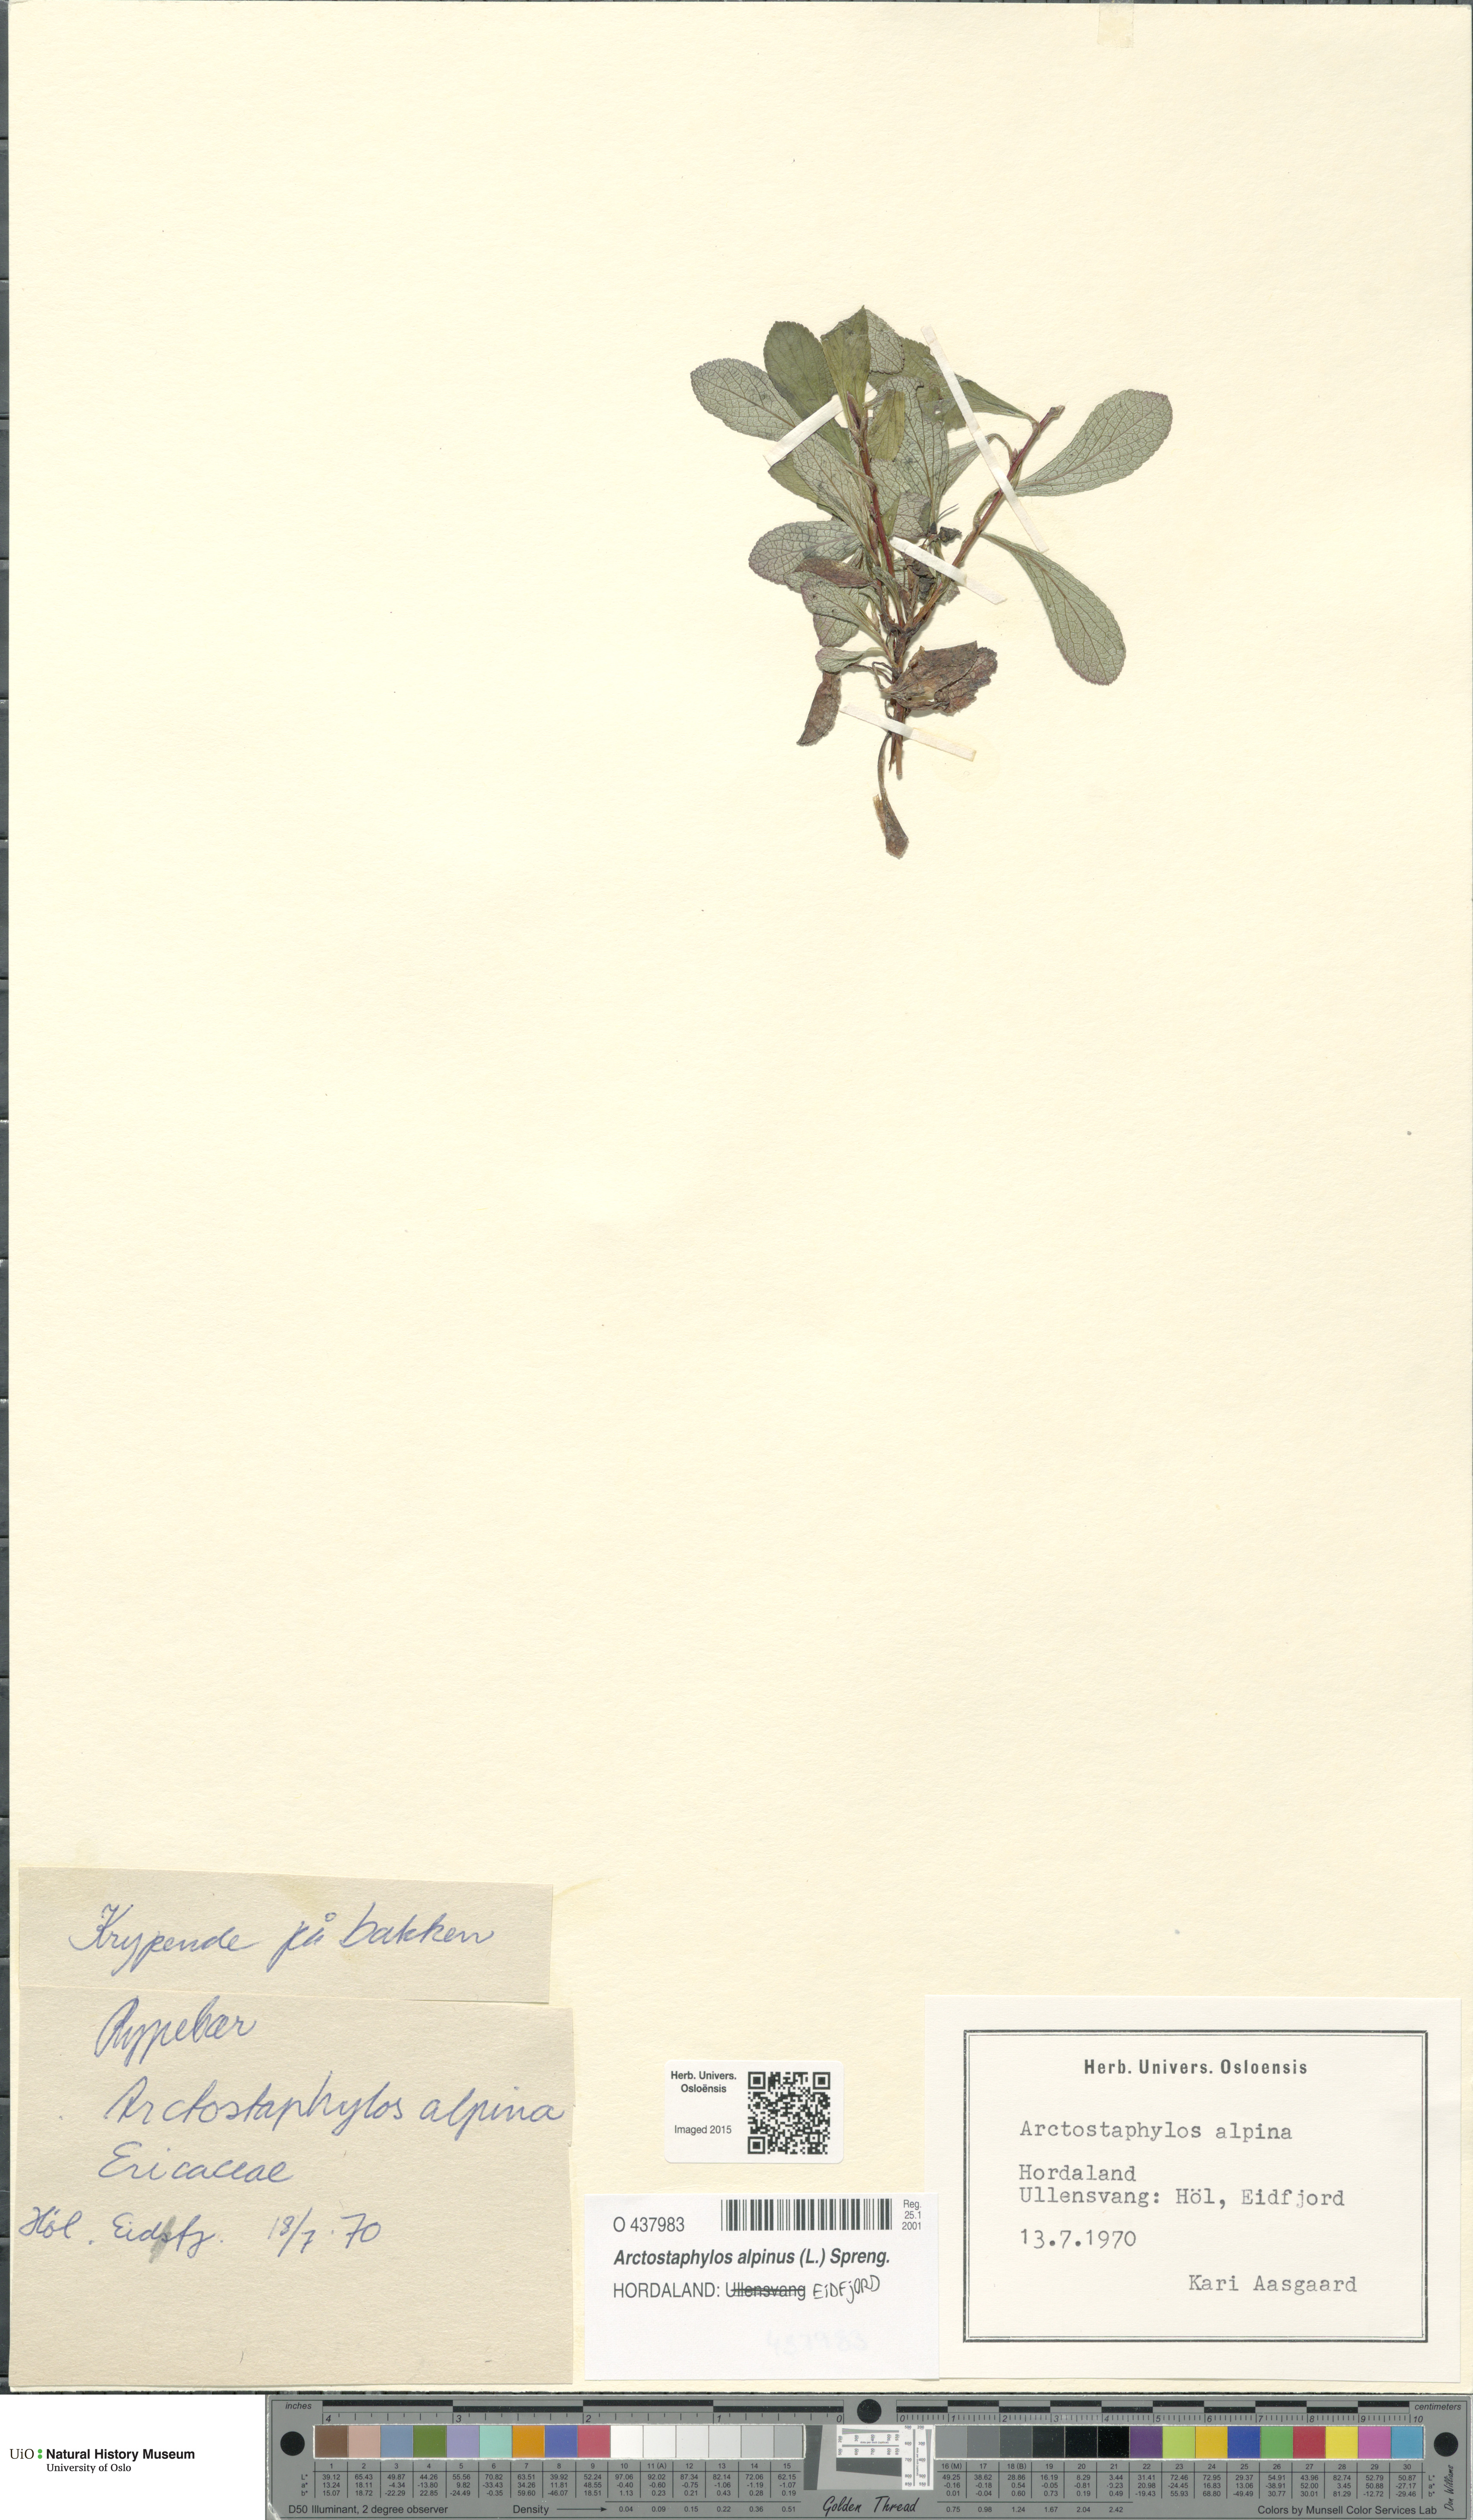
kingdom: Plantae
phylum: Tracheophyta
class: Magnoliopsida
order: Ericales
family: Ericaceae
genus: Arctostaphylos
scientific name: Arctostaphylos alpinus
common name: Alpine bearberry
